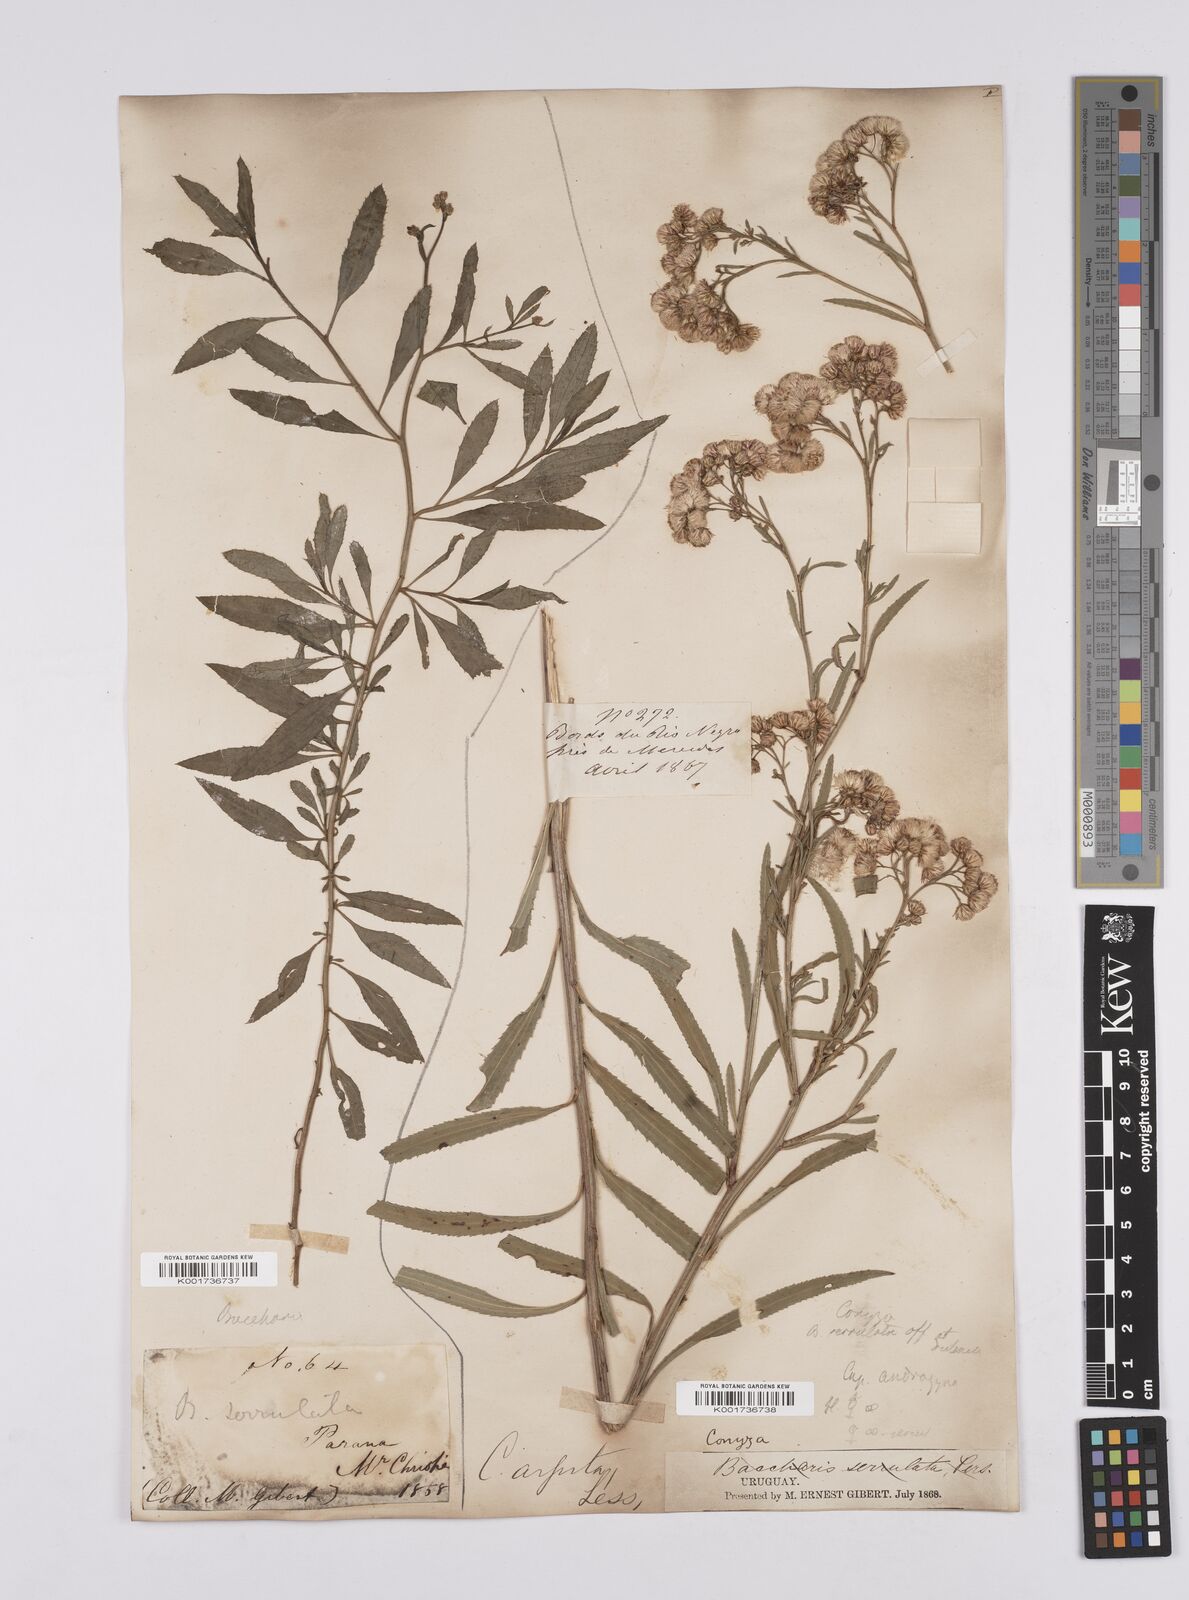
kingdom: Plantae
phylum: Tracheophyta
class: Magnoliopsida
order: Asterales
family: Asteraceae
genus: Baccharis
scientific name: Baccharis breviseta
